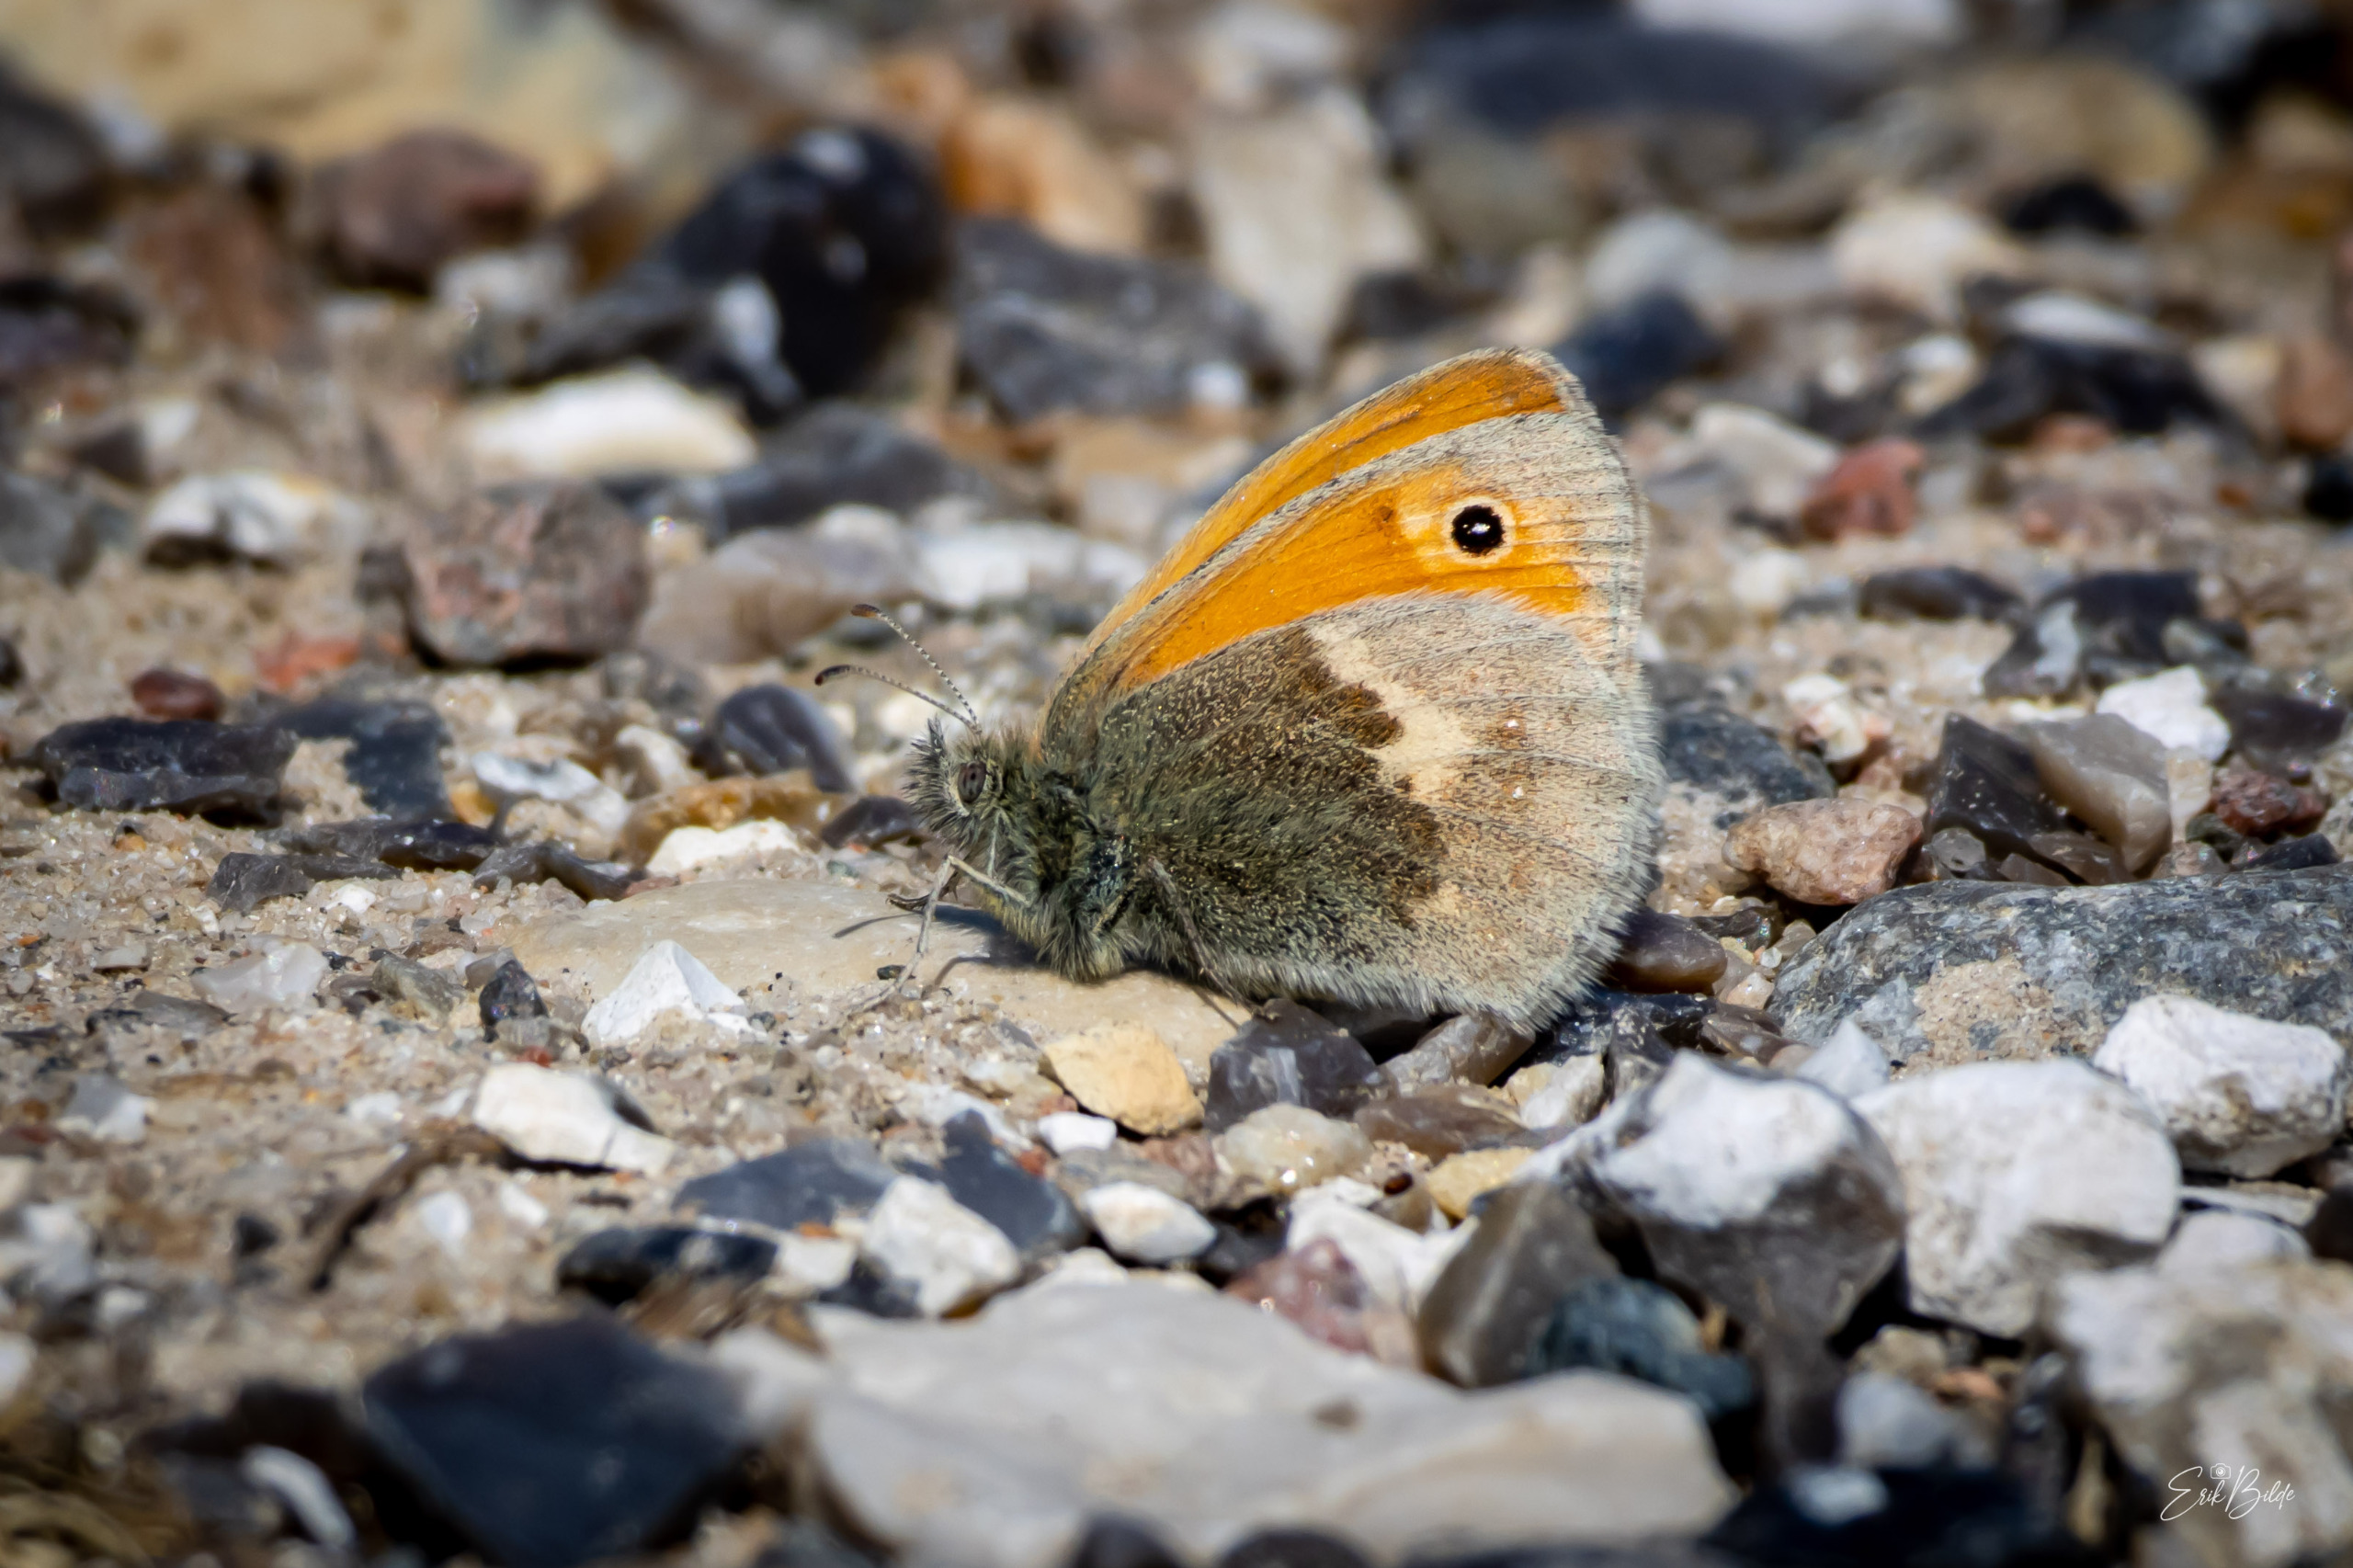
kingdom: Animalia
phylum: Arthropoda
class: Insecta
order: Lepidoptera
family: Nymphalidae
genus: Coenonympha
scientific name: Coenonympha pamphilus
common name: Okkergul randøje
